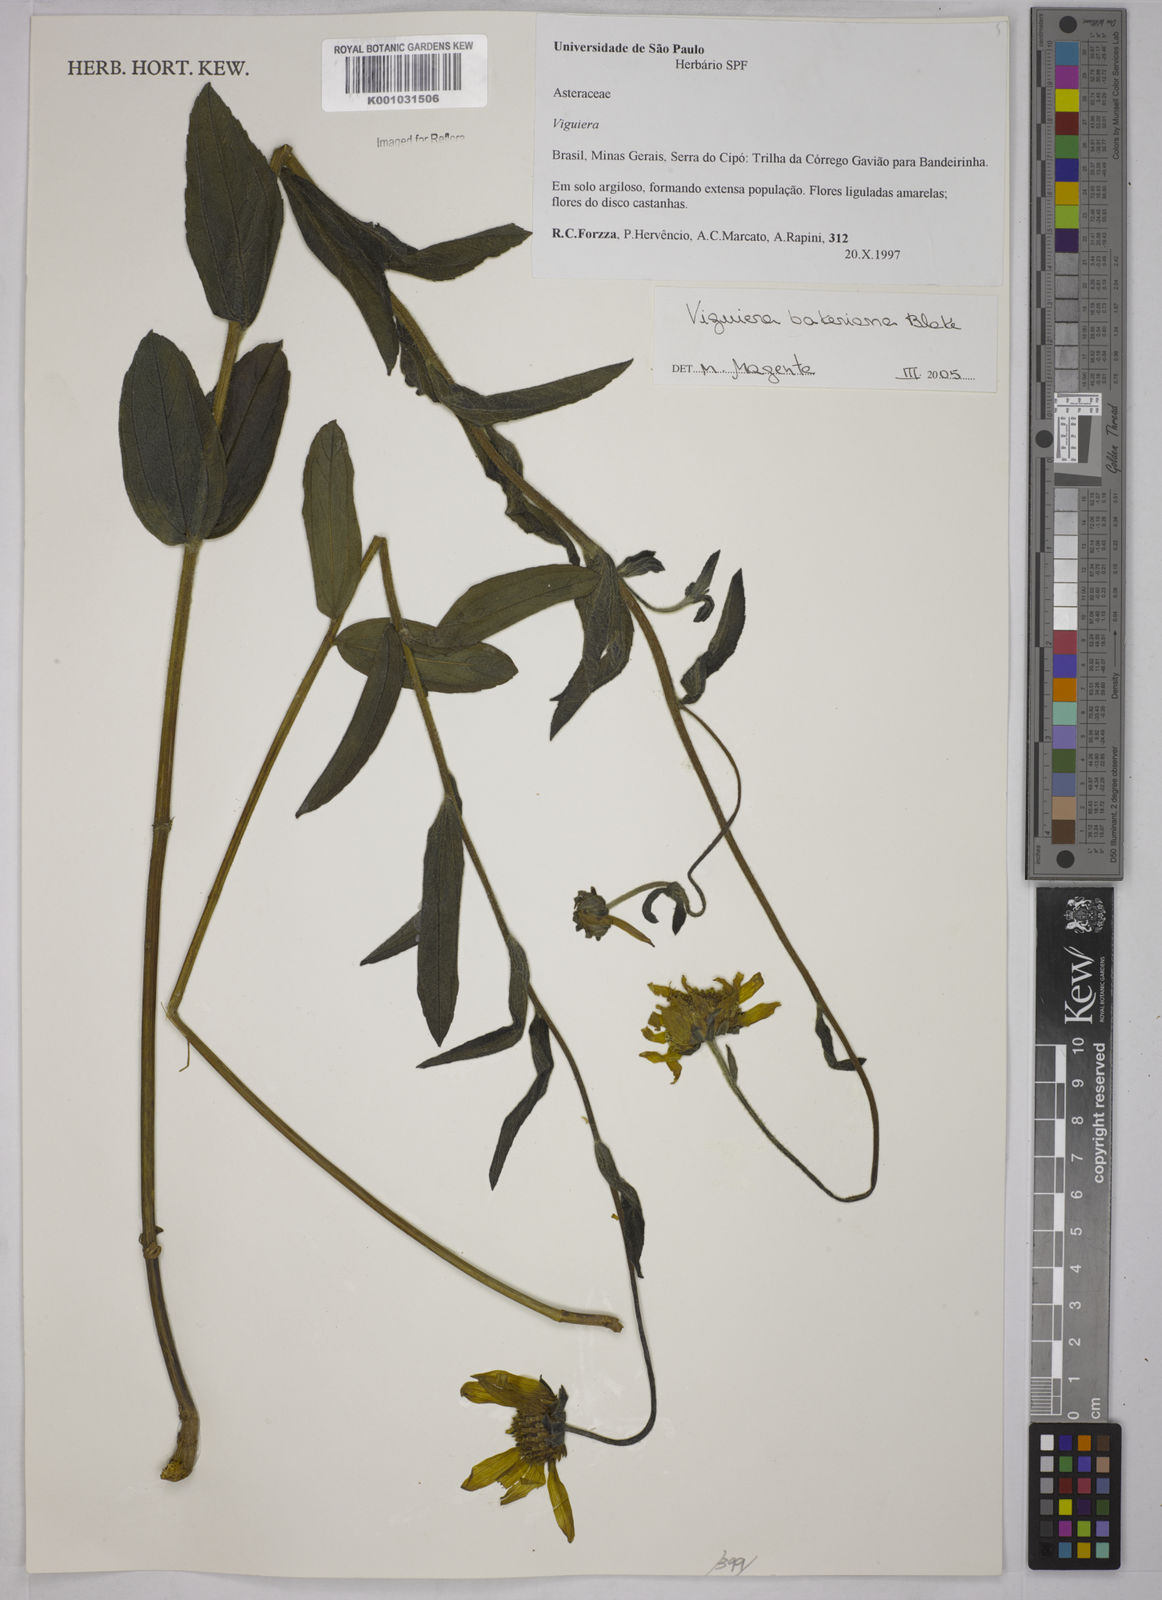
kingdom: Plantae
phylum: Tracheophyta
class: Magnoliopsida
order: Asterales
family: Asteraceae
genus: Aldama
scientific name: Aldama robusta
